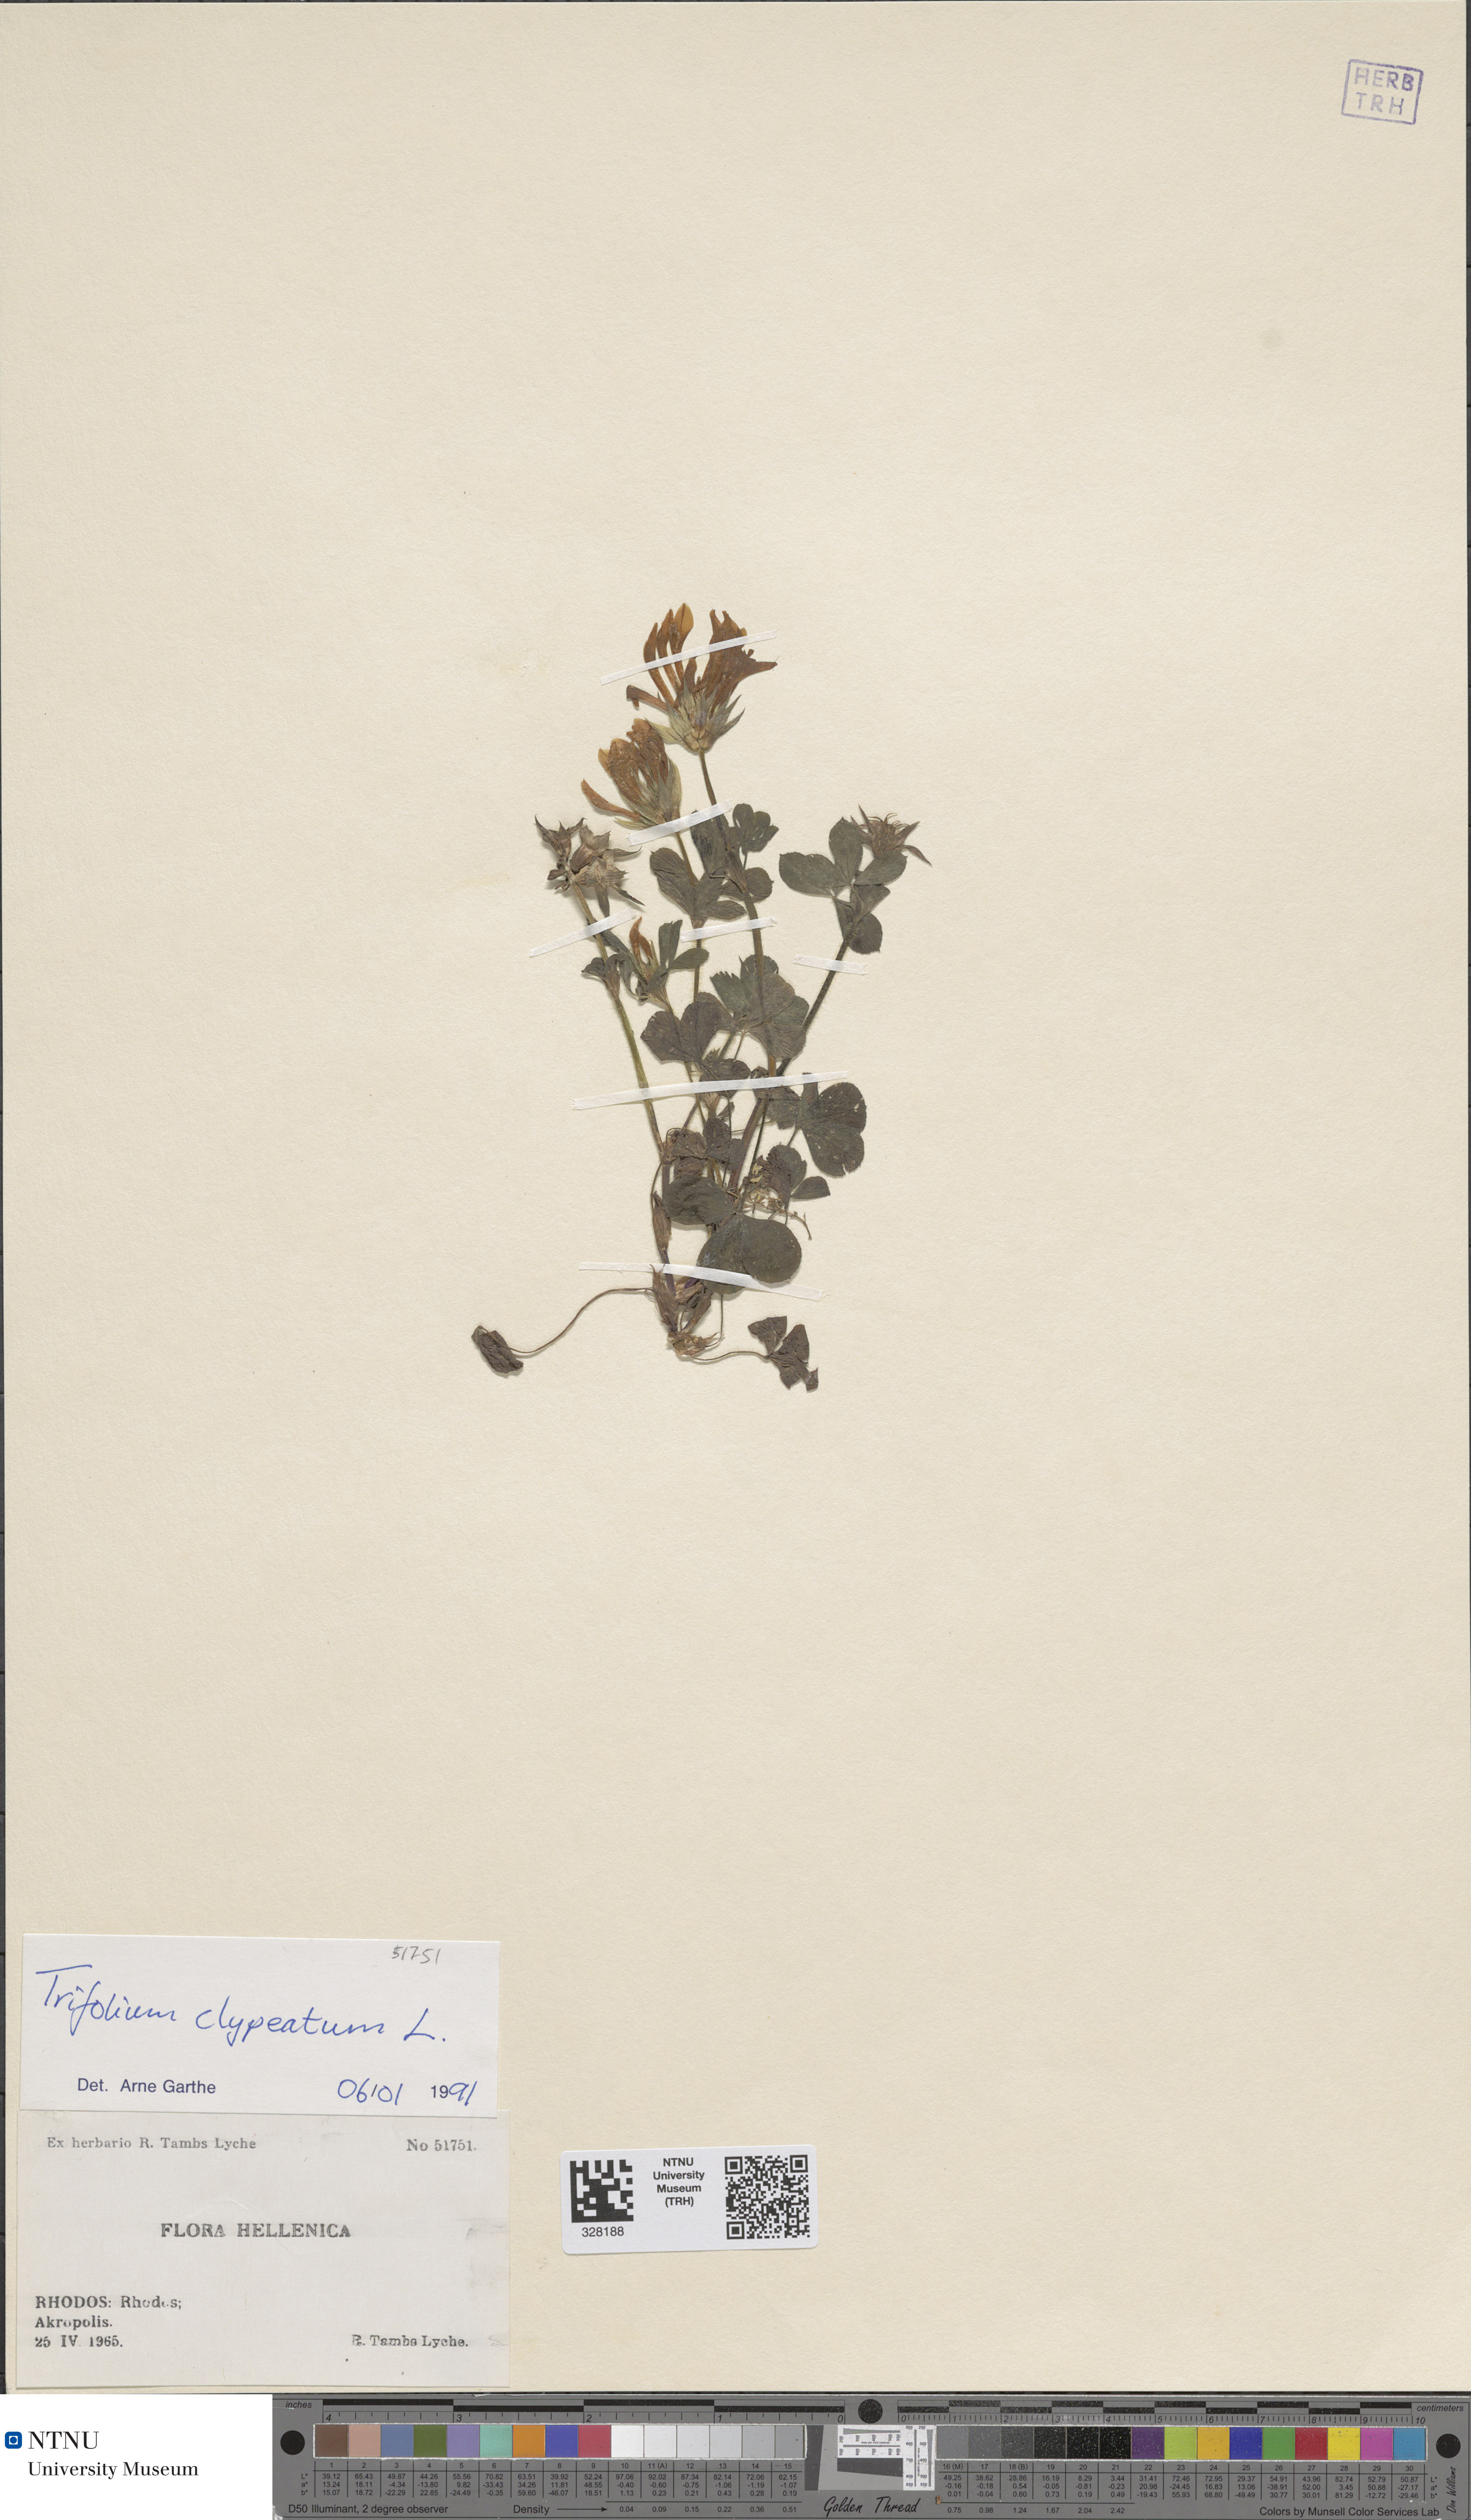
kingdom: Plantae
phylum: Tracheophyta
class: Magnoliopsida
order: Fabales
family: Fabaceae
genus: Trifolium
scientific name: Trifolium clypeatum
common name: Shield clover
